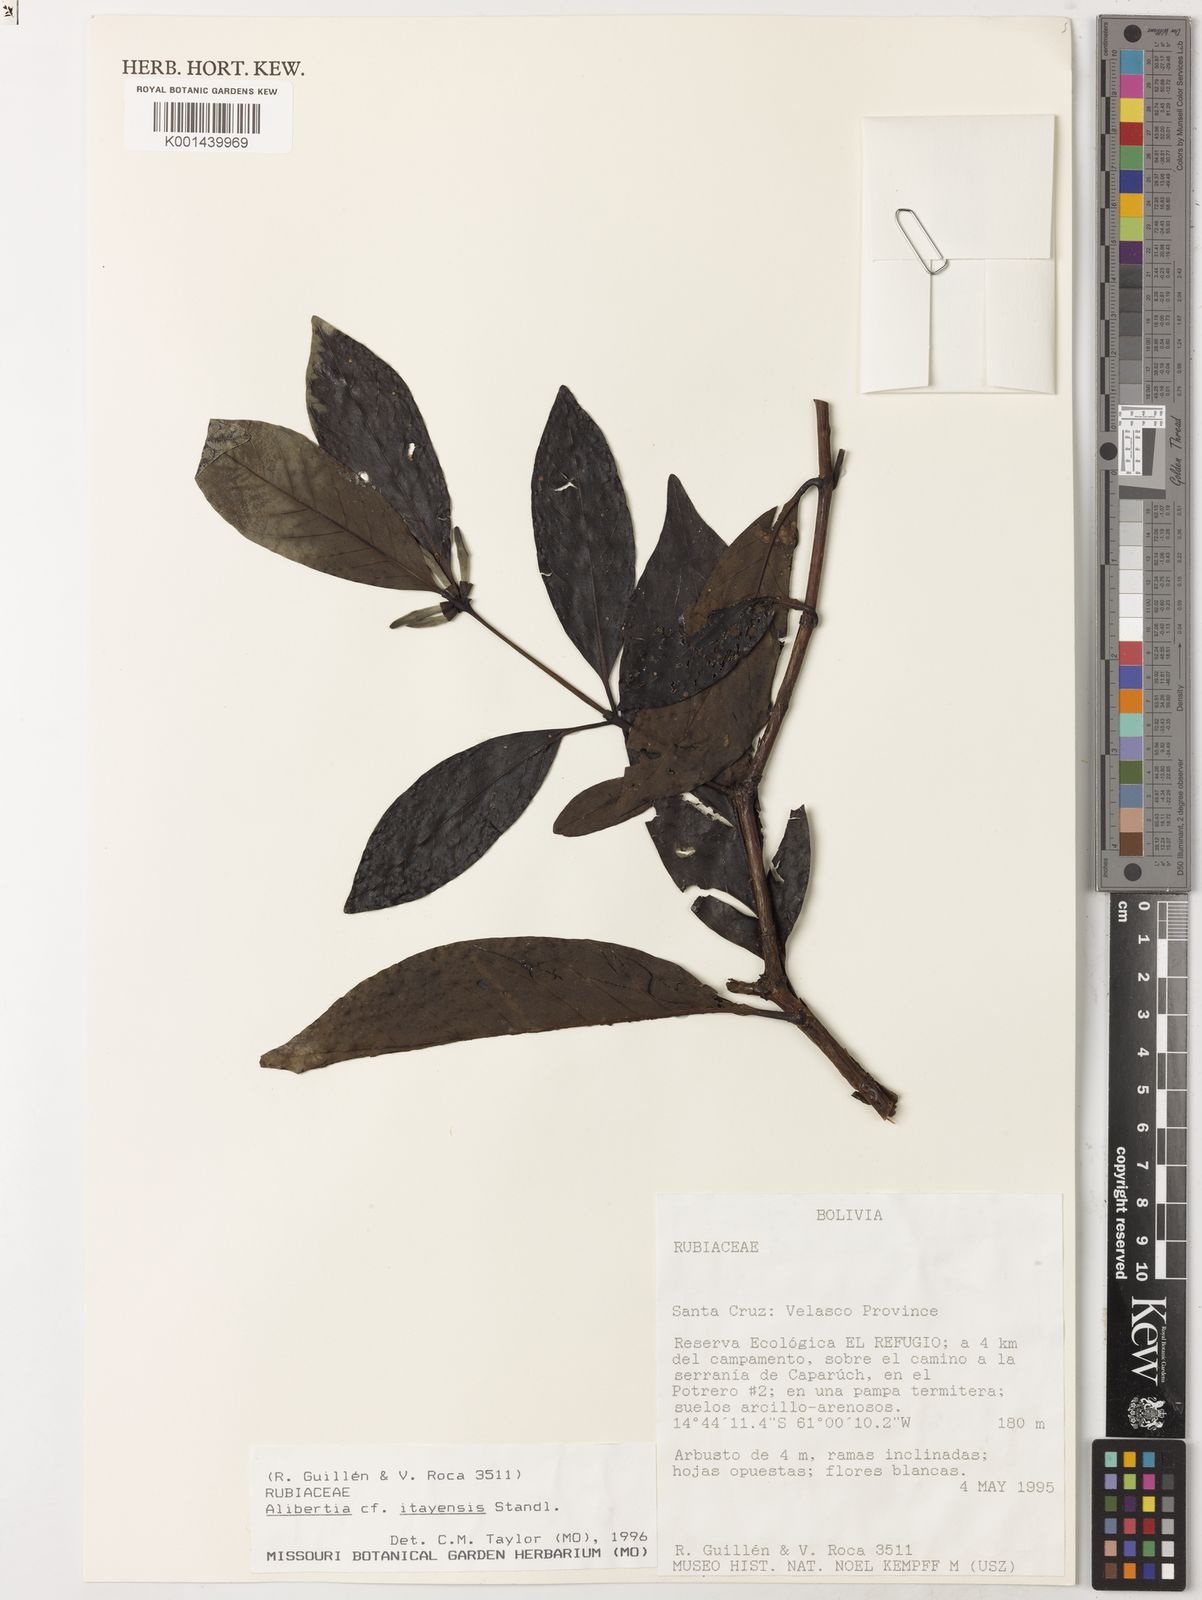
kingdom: Plantae
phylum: Tracheophyta
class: Magnoliopsida
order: Gentianales
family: Rubiaceae
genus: Cordiera
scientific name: Cordiera killipii
